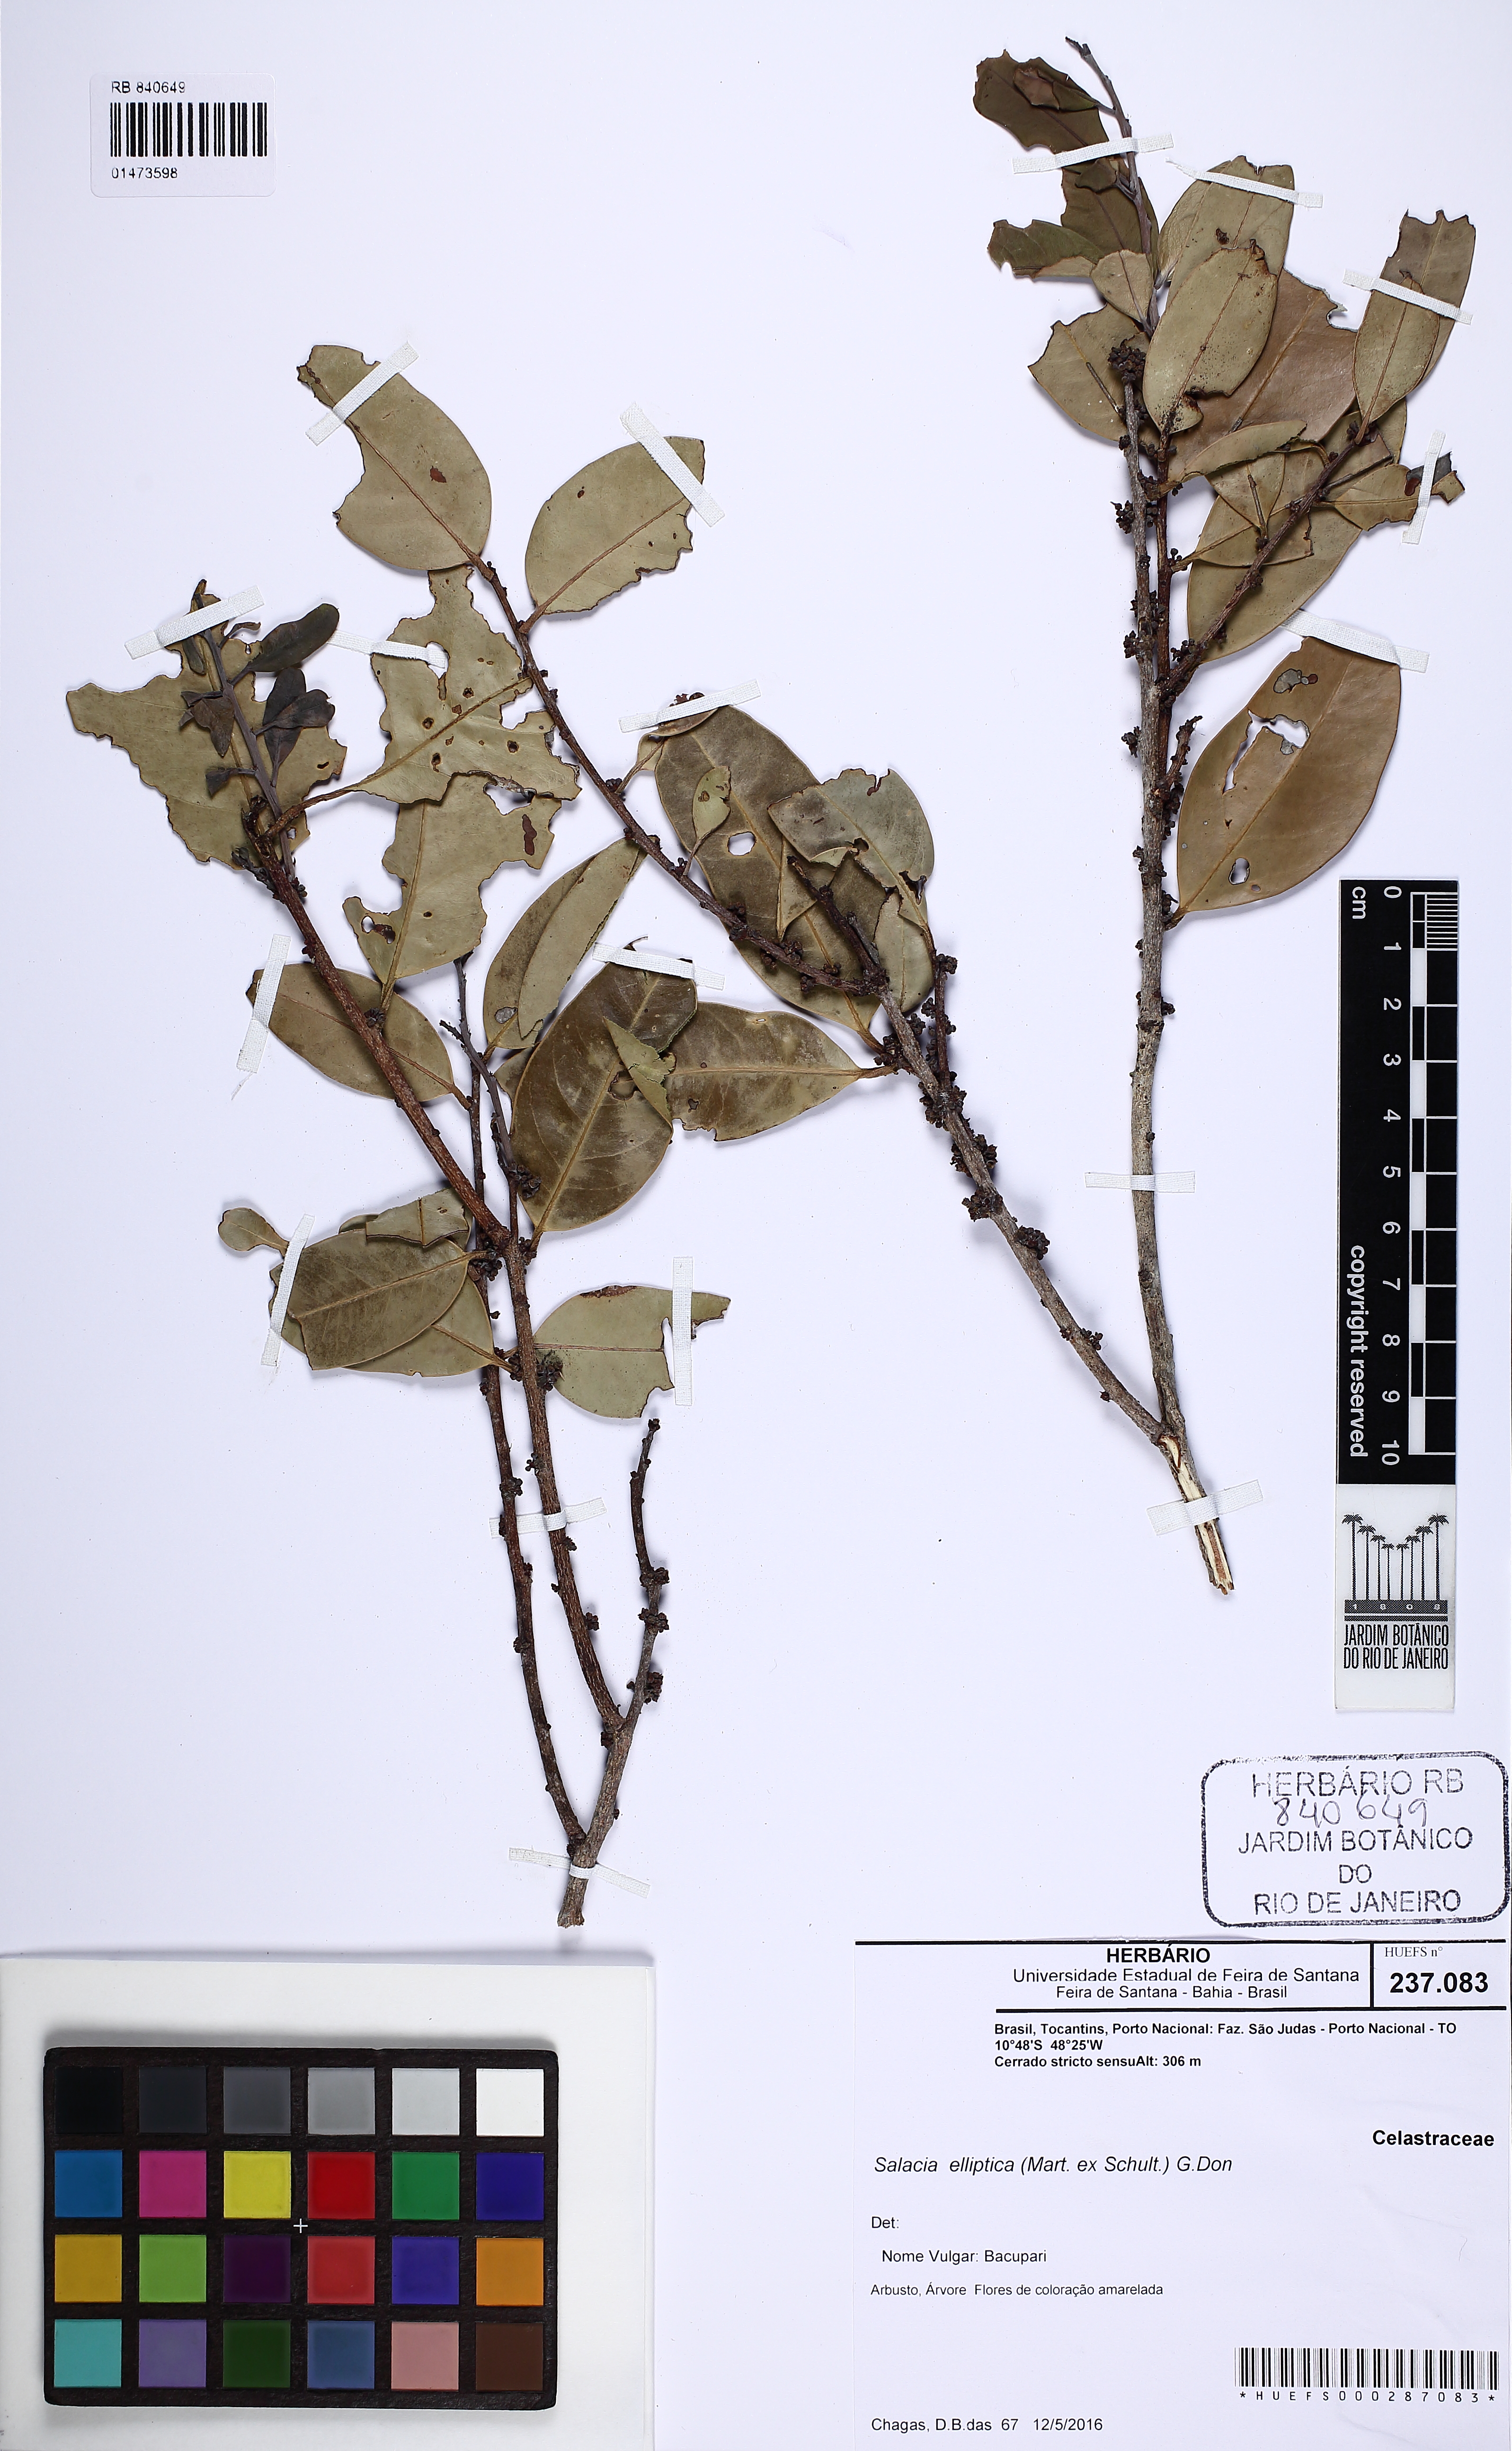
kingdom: Plantae
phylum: Tracheophyta
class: Magnoliopsida
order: Celastrales
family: Celastraceae
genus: Salacia
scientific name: Salacia elliptica
